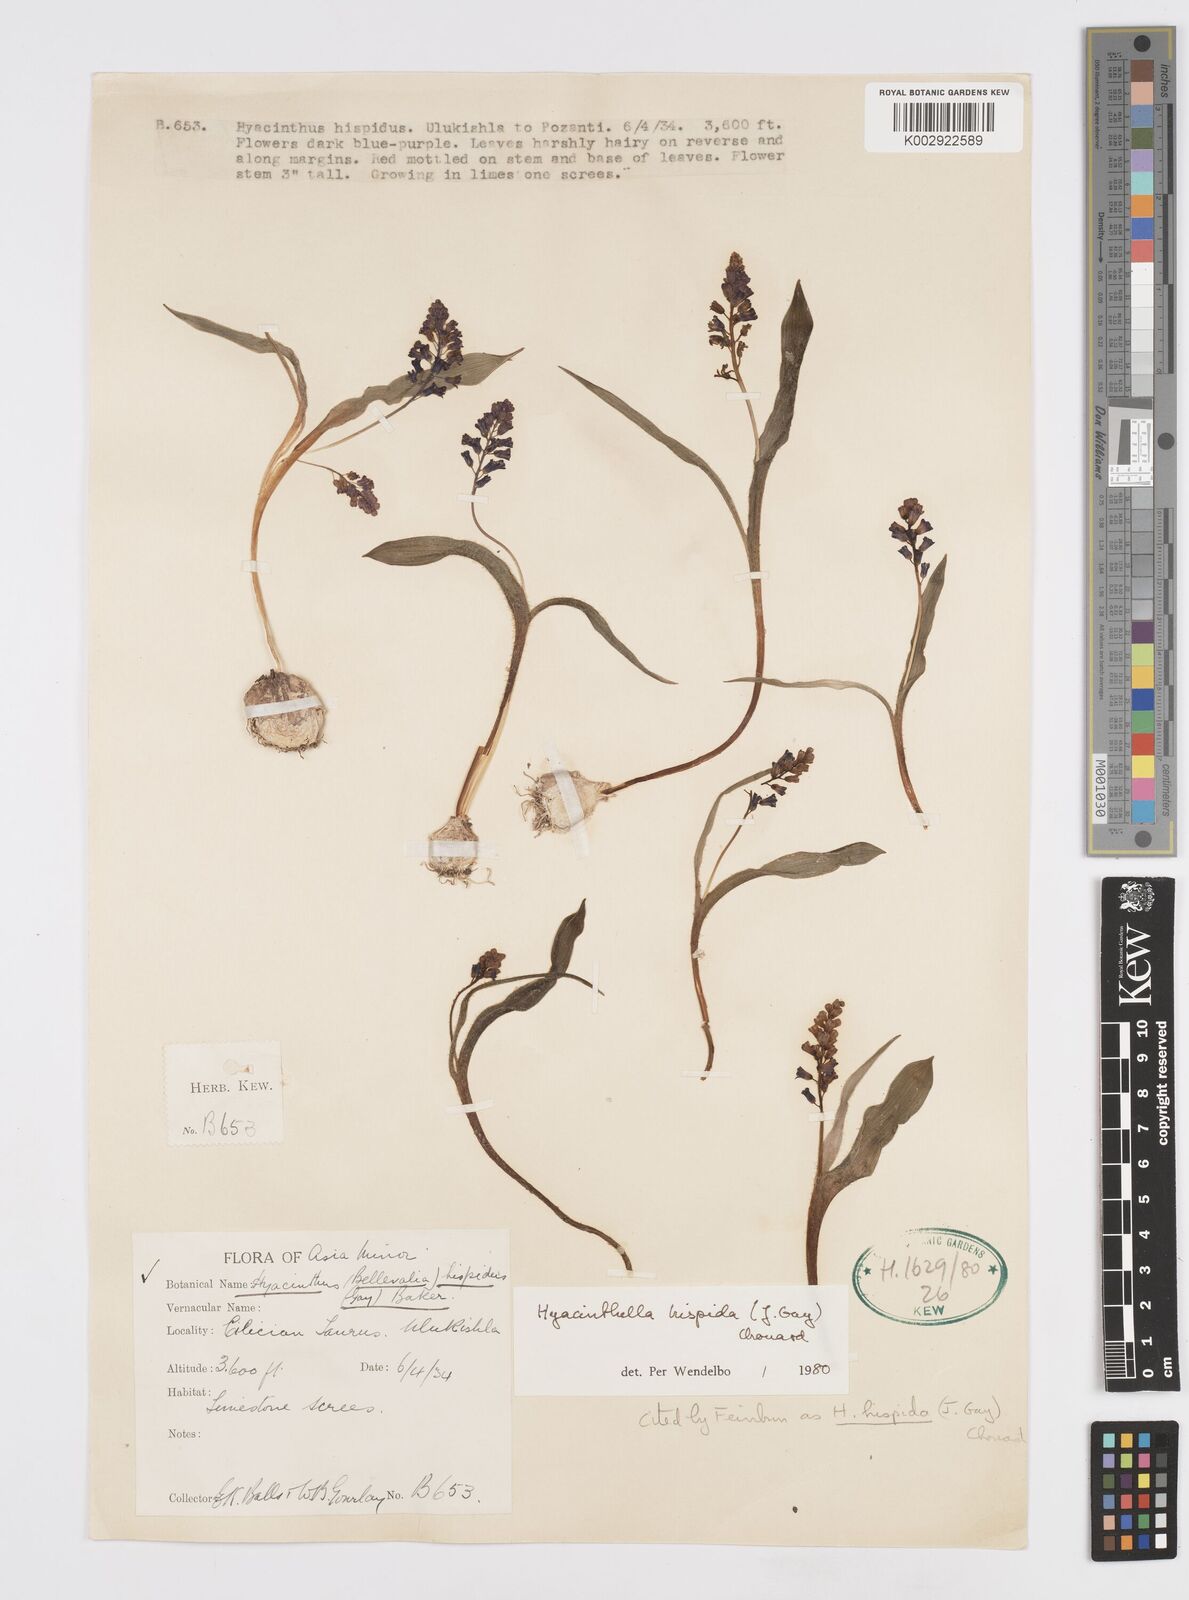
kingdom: Plantae
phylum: Tracheophyta
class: Liliopsida
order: Asparagales
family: Asparagaceae
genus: Hyacinthella
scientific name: Hyacinthella hispida
